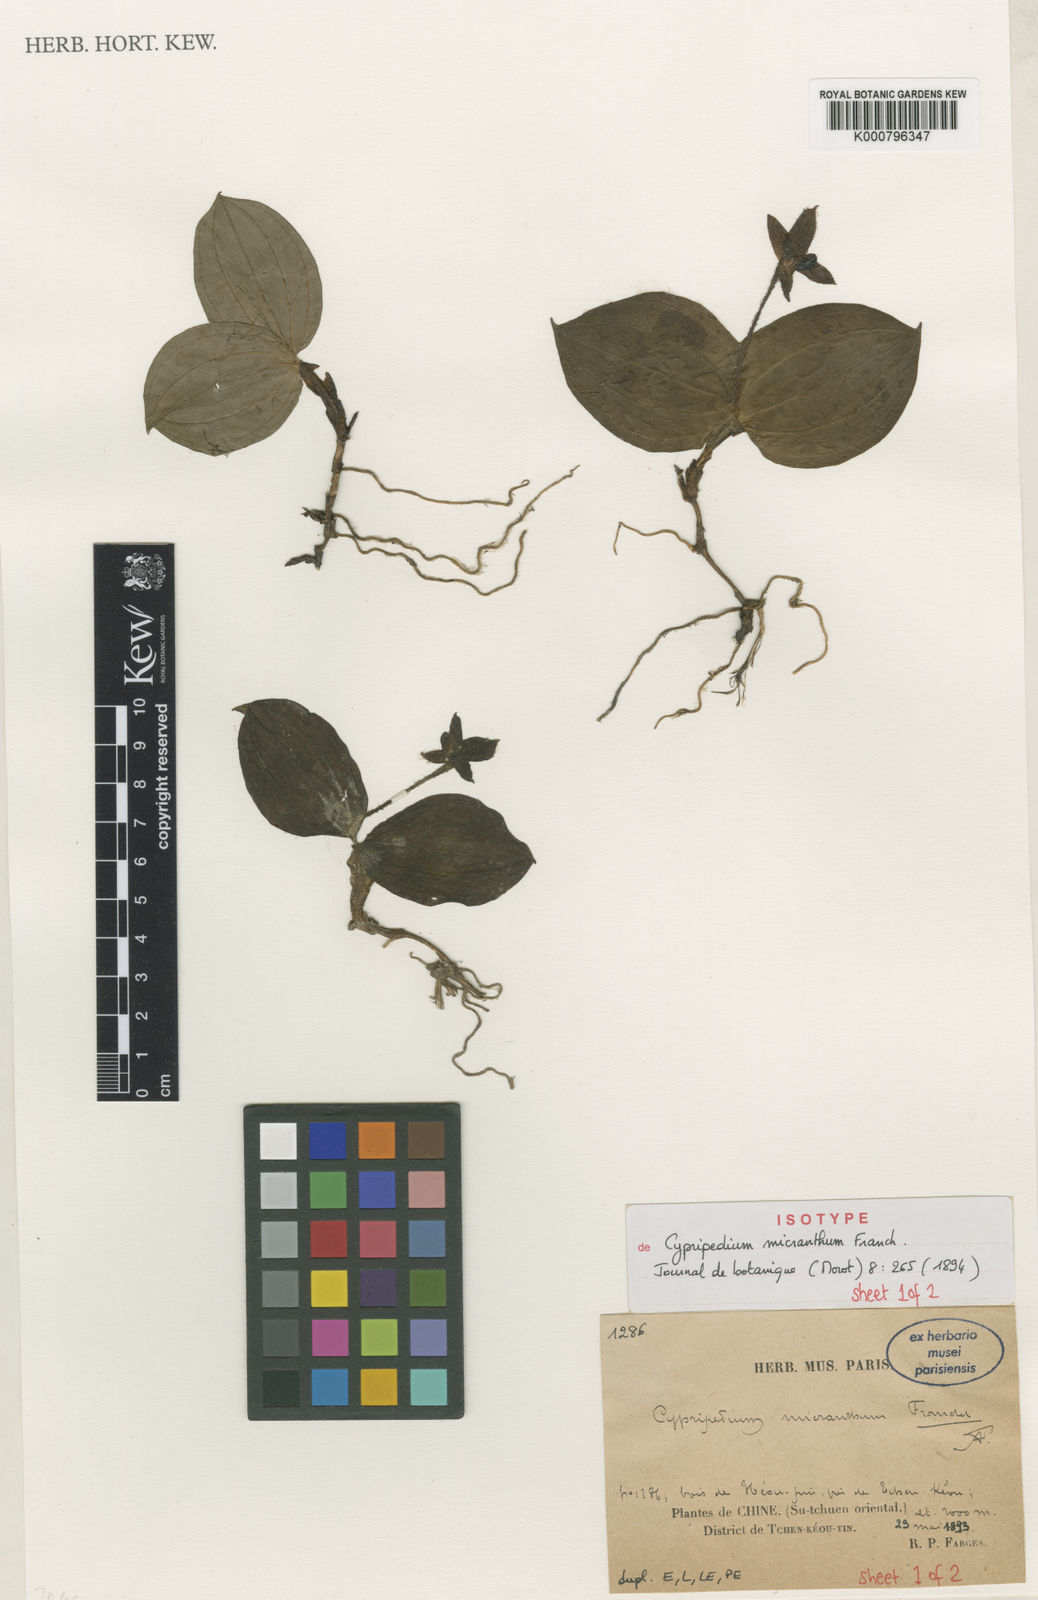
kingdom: Plantae
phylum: Tracheophyta
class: Liliopsida
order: Asparagales
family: Orchidaceae
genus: Cypripedium
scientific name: Cypripedium micranthum
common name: Small flowered cypripedium
